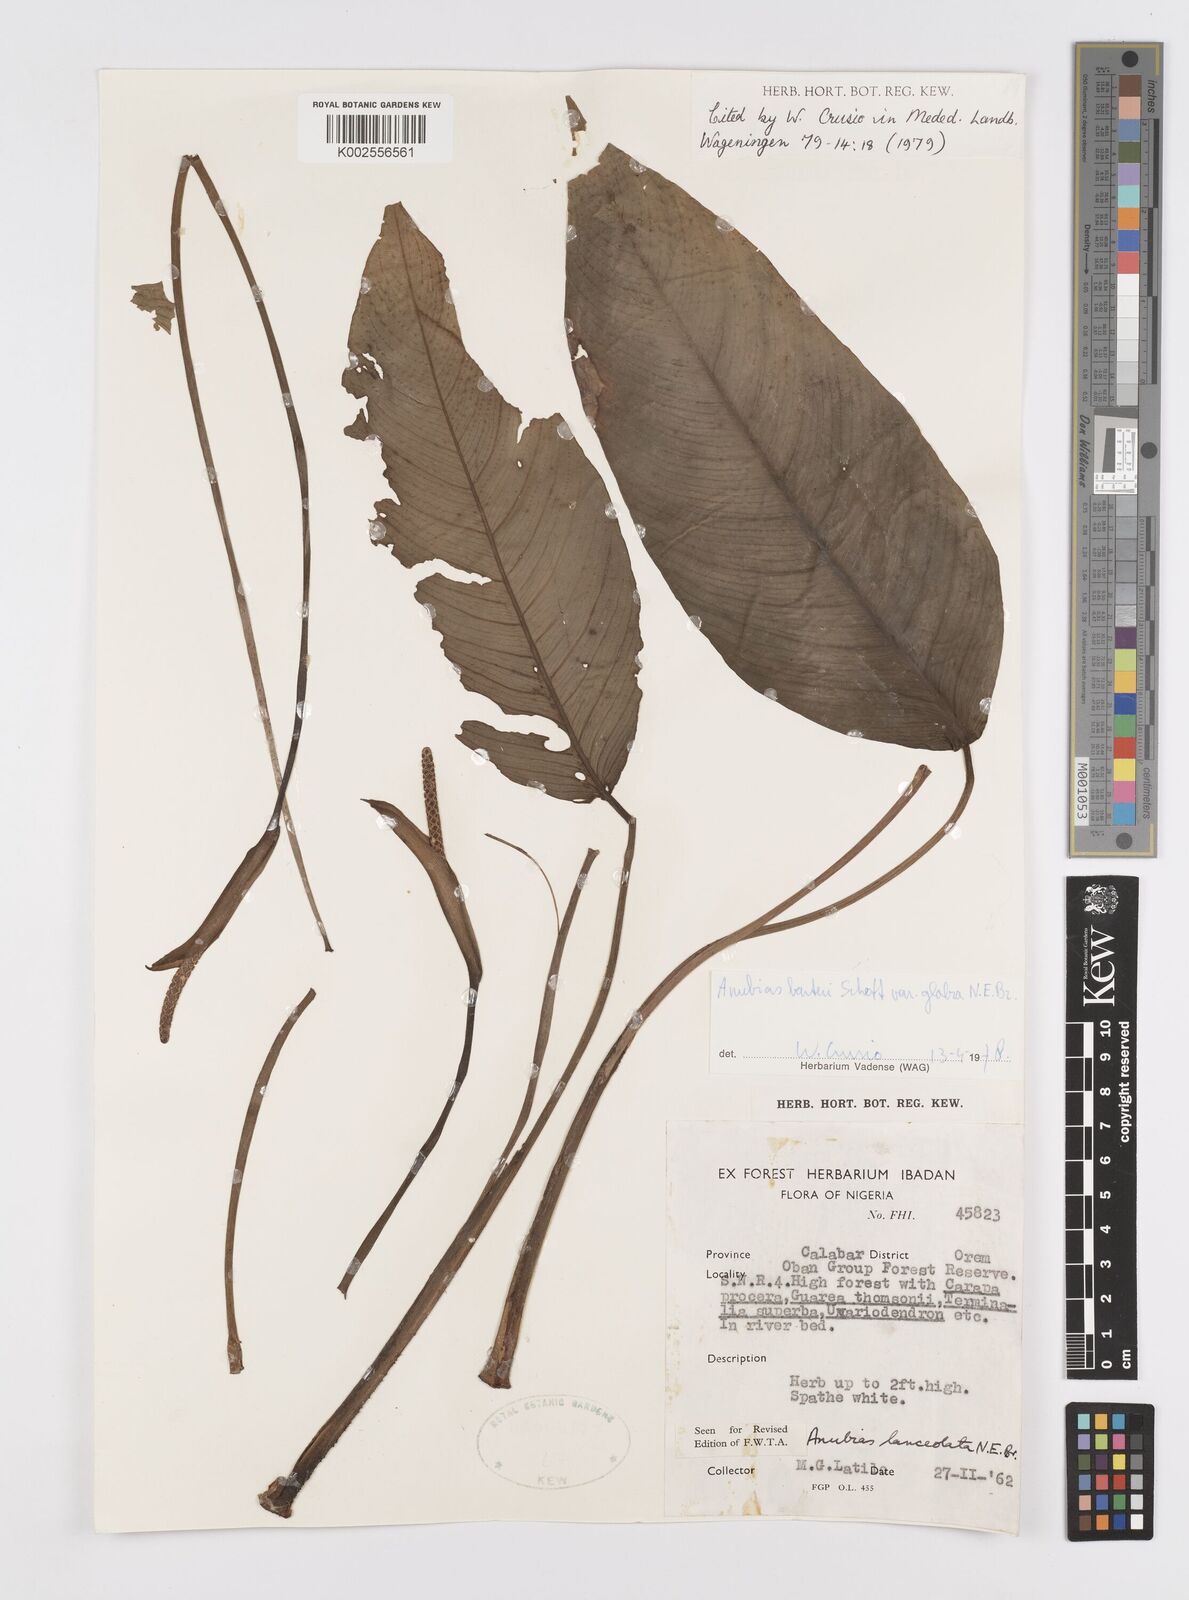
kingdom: Plantae
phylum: Tracheophyta
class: Liliopsida
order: Alismatales
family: Araceae
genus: Anubias
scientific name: Anubias barteri
